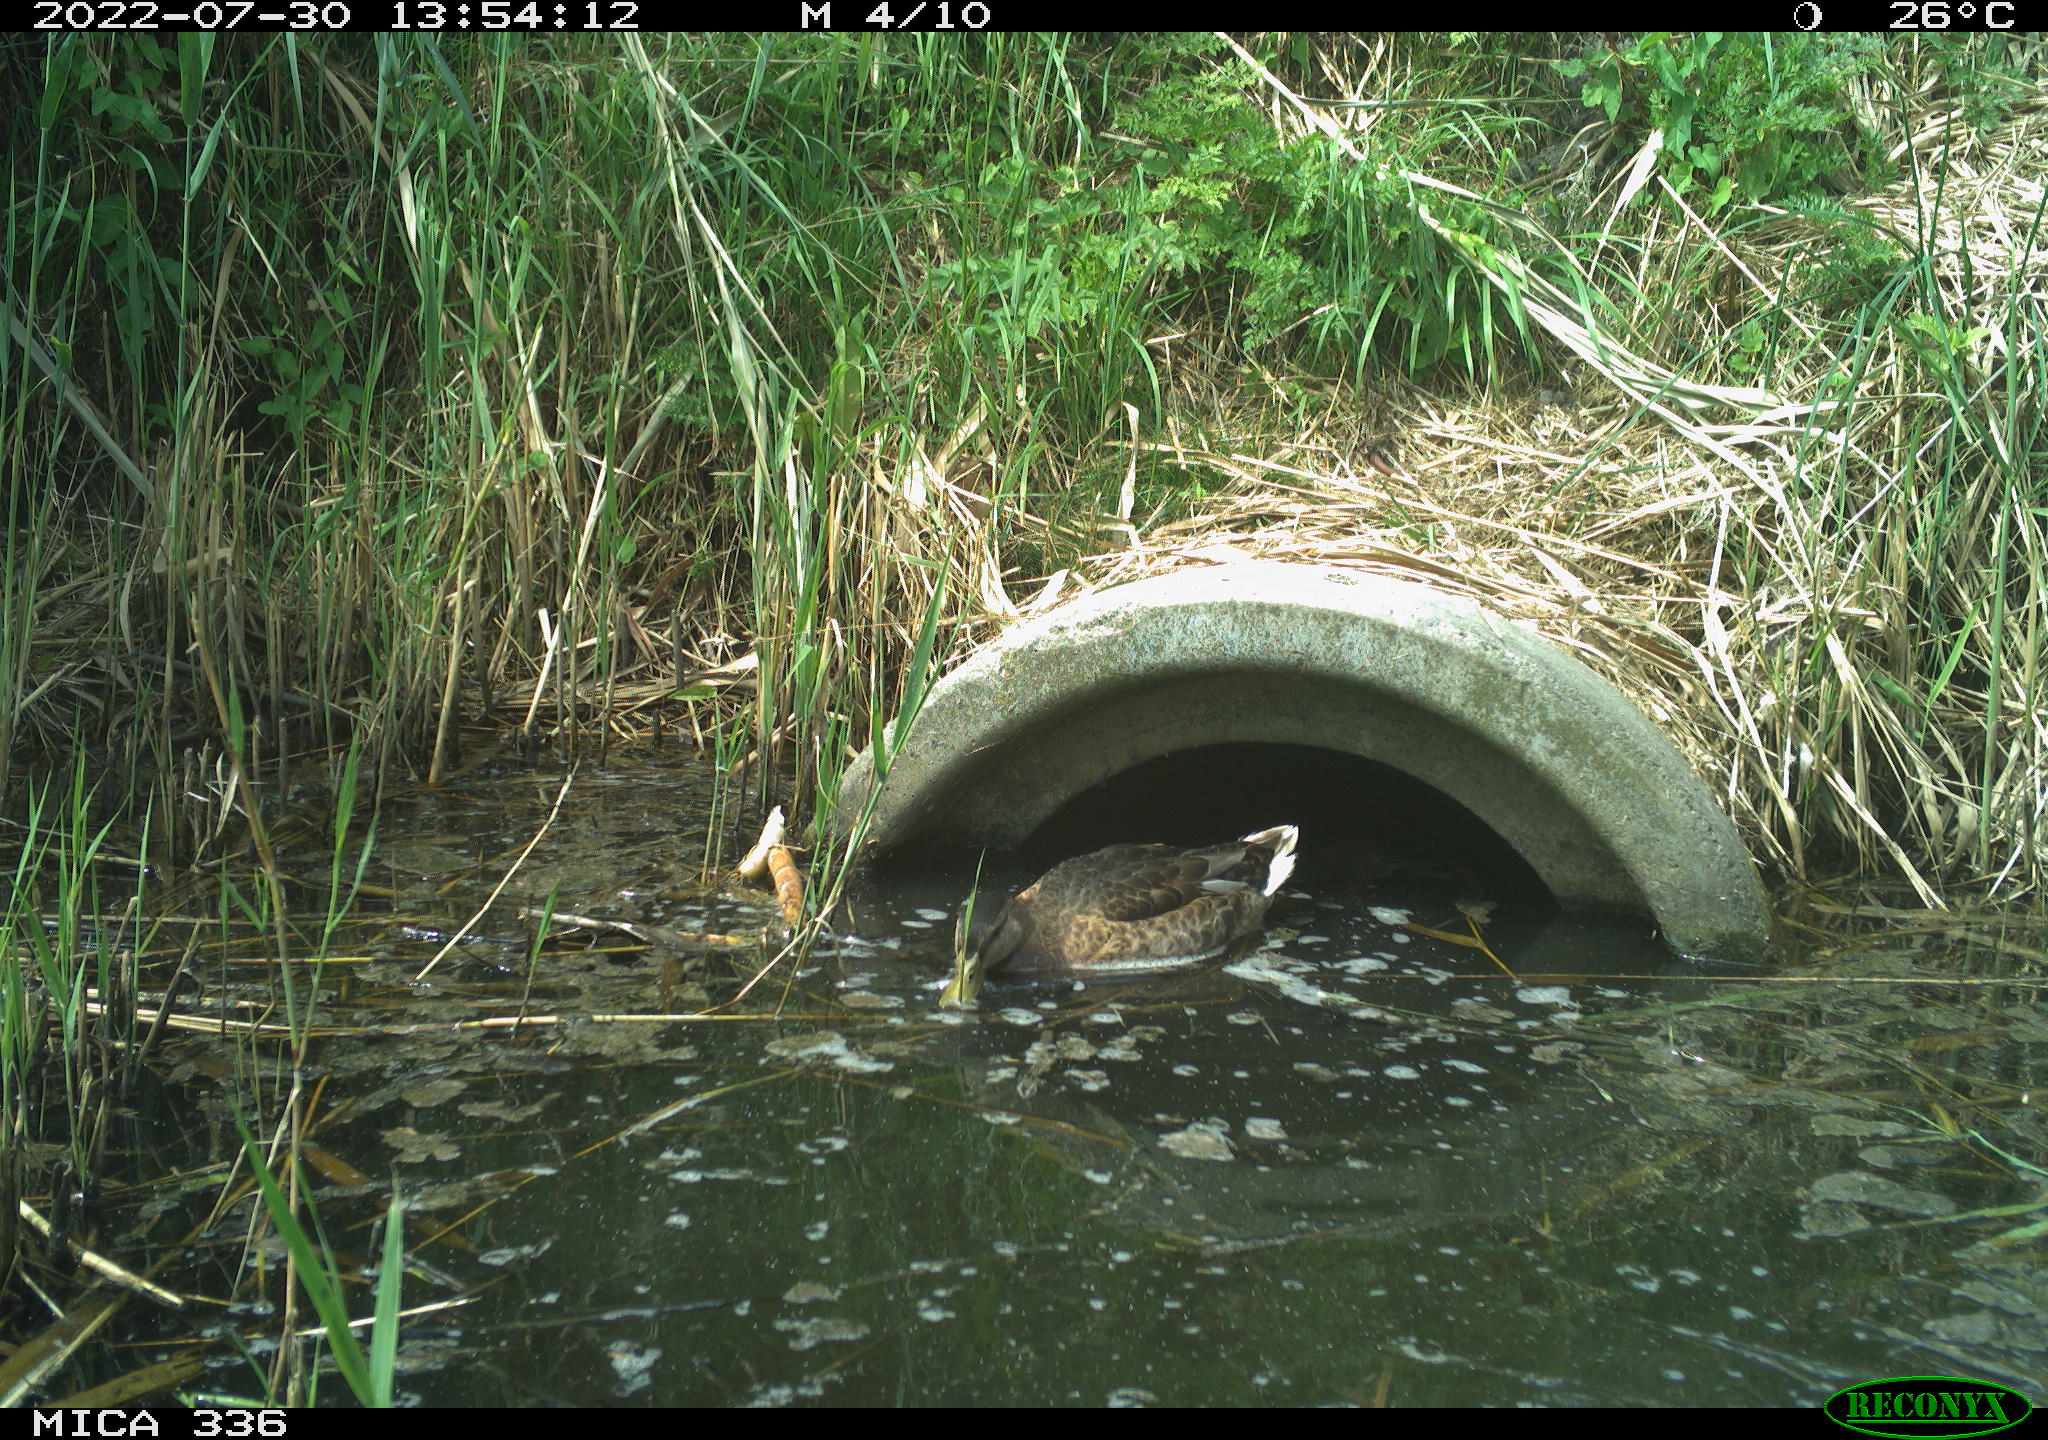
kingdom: Animalia
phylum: Chordata
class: Aves
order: Anseriformes
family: Anatidae
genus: Mareca
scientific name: Mareca strepera
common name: Gadwall
